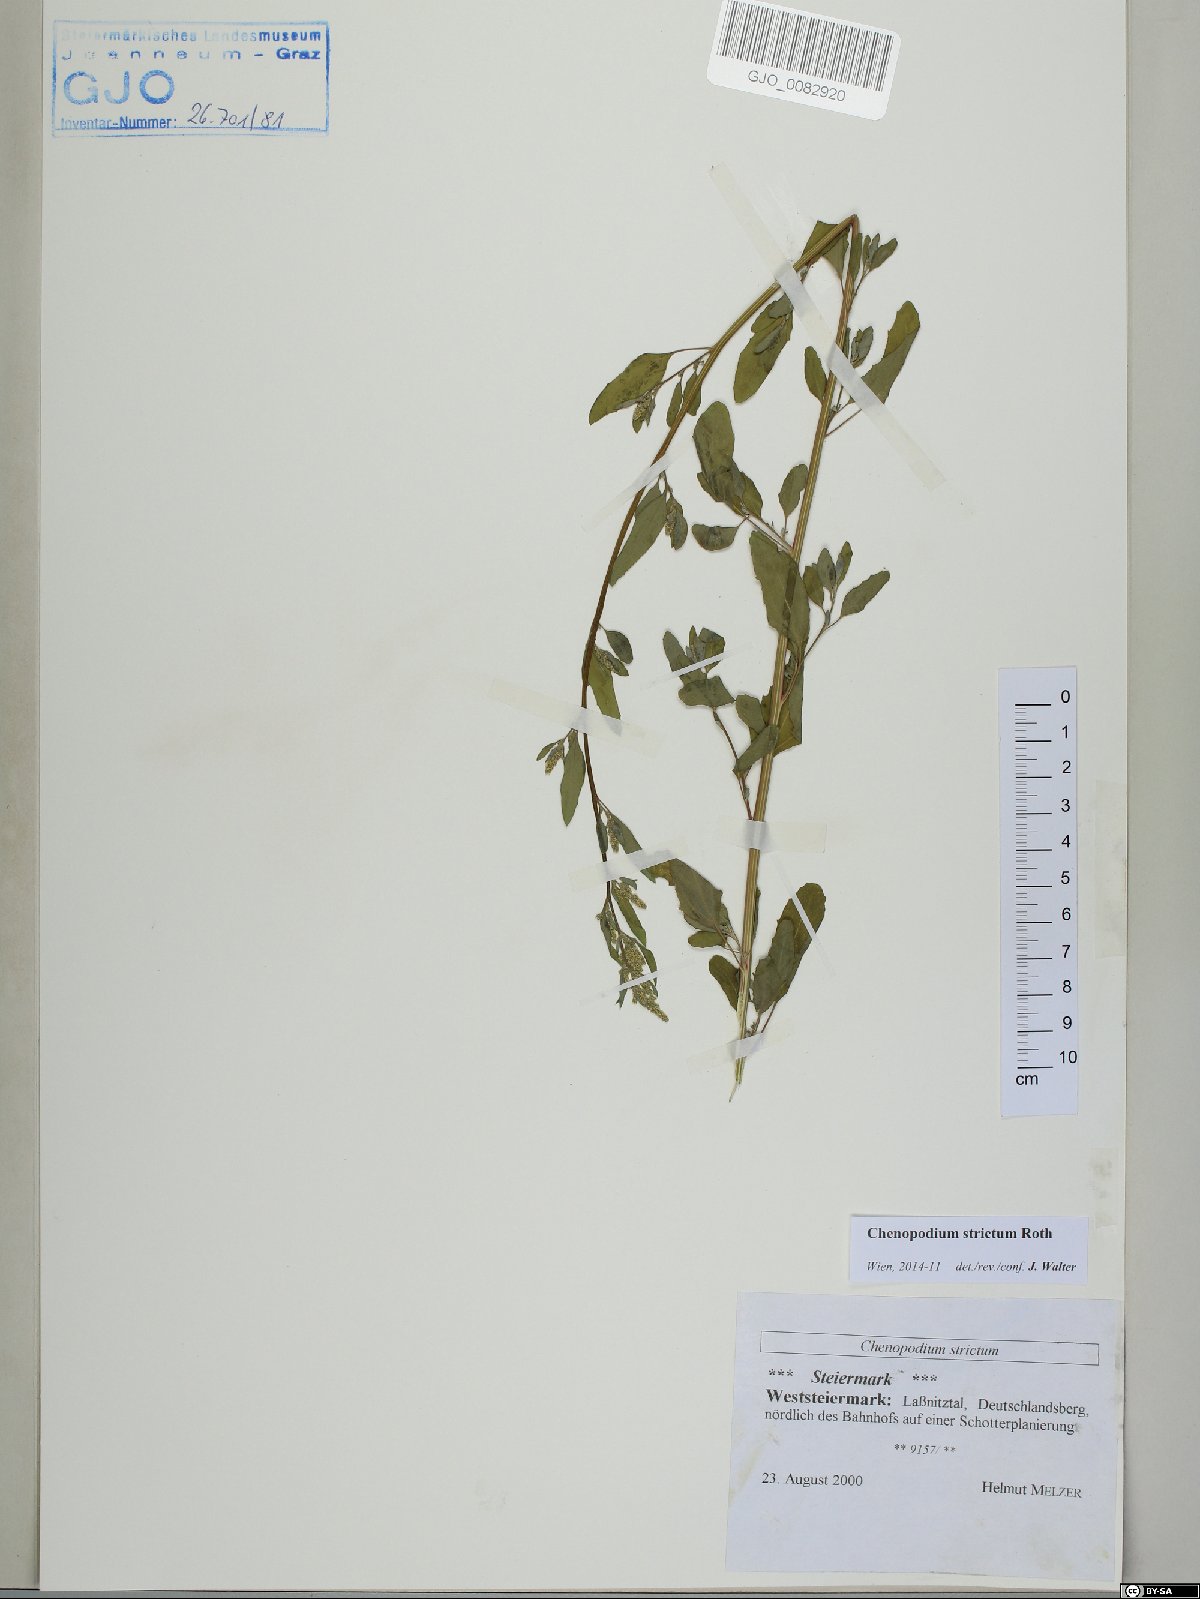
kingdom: Plantae
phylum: Tracheophyta
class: Magnoliopsida
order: Caryophyllales
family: Amaranthaceae
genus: Chenopodium
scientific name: Chenopodium album
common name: Fat-hen
